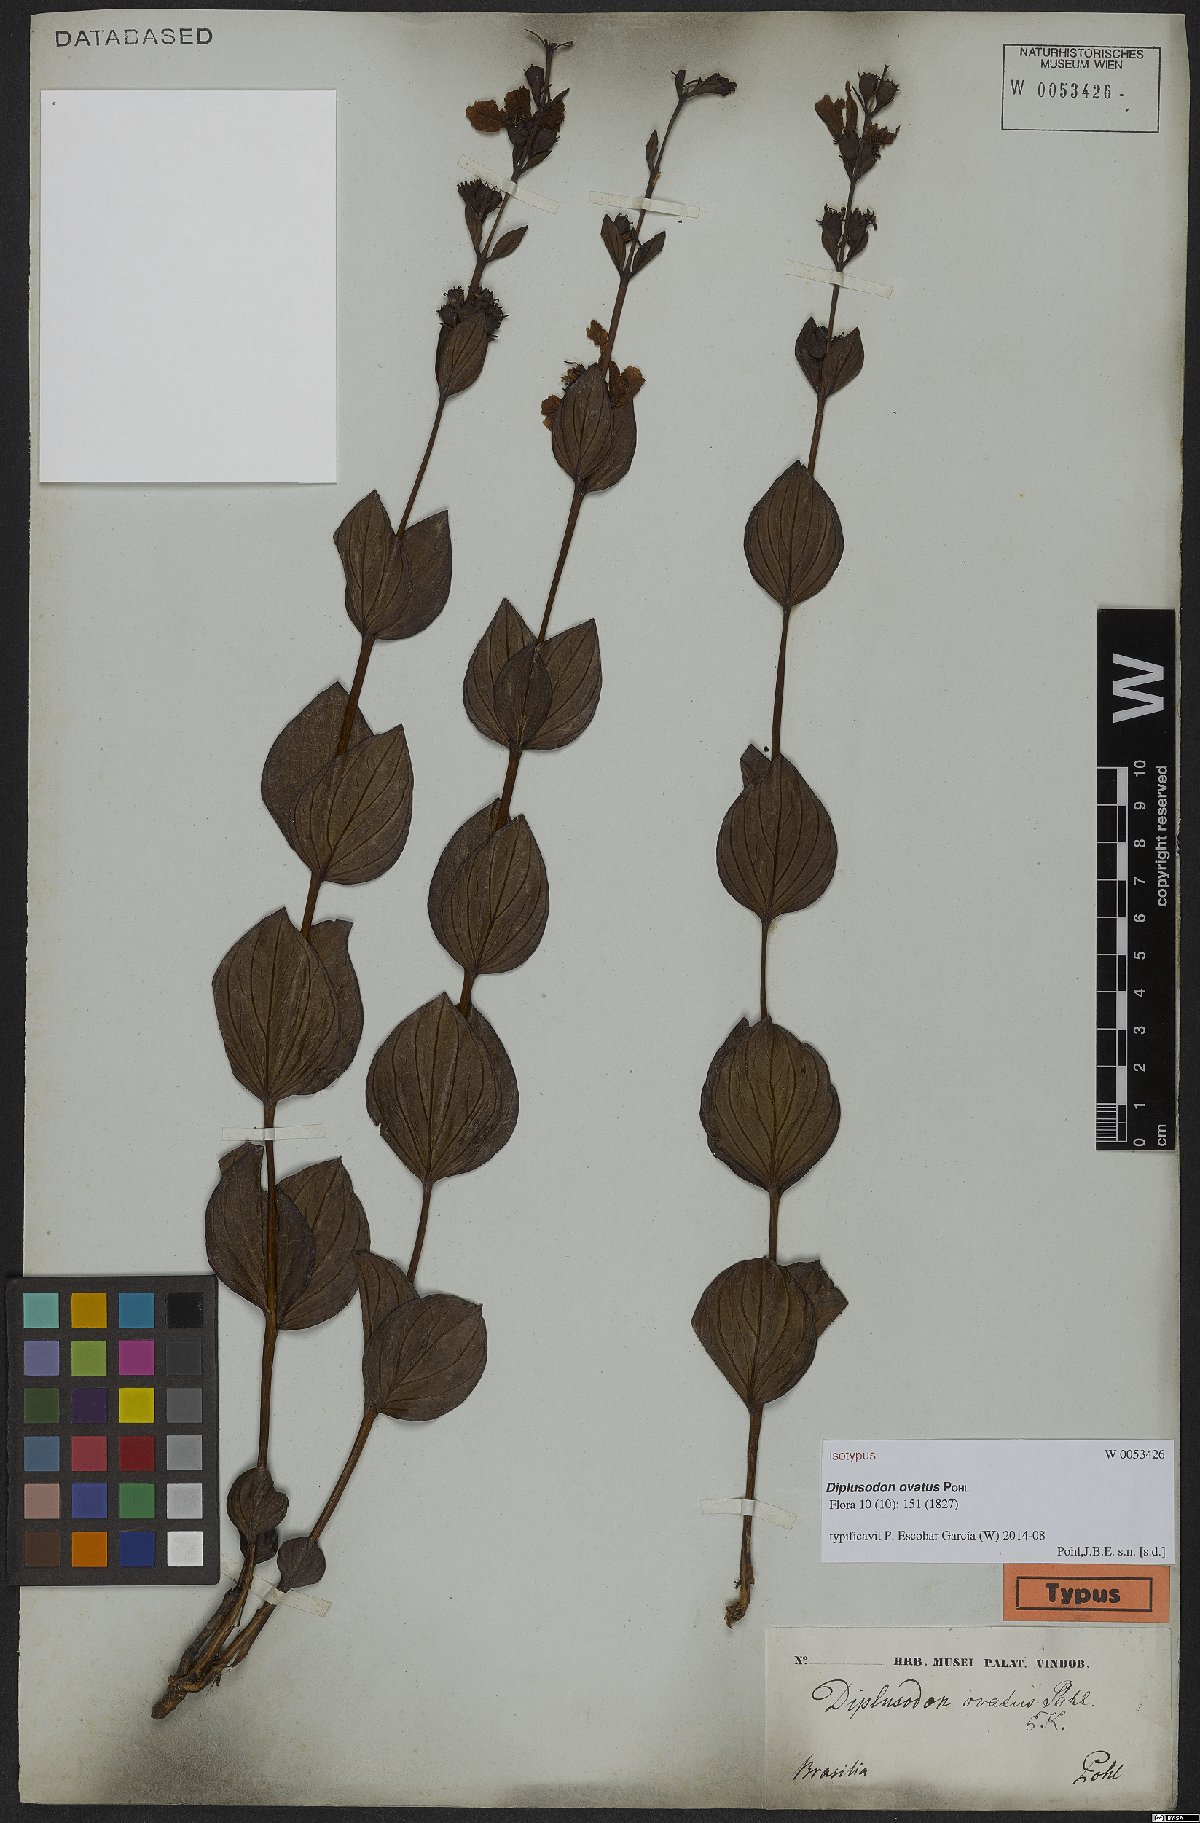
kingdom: Plantae
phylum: Tracheophyta
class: Magnoliopsida
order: Myrtales
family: Lythraceae
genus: Diplusodon
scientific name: Diplusodon ovatus
